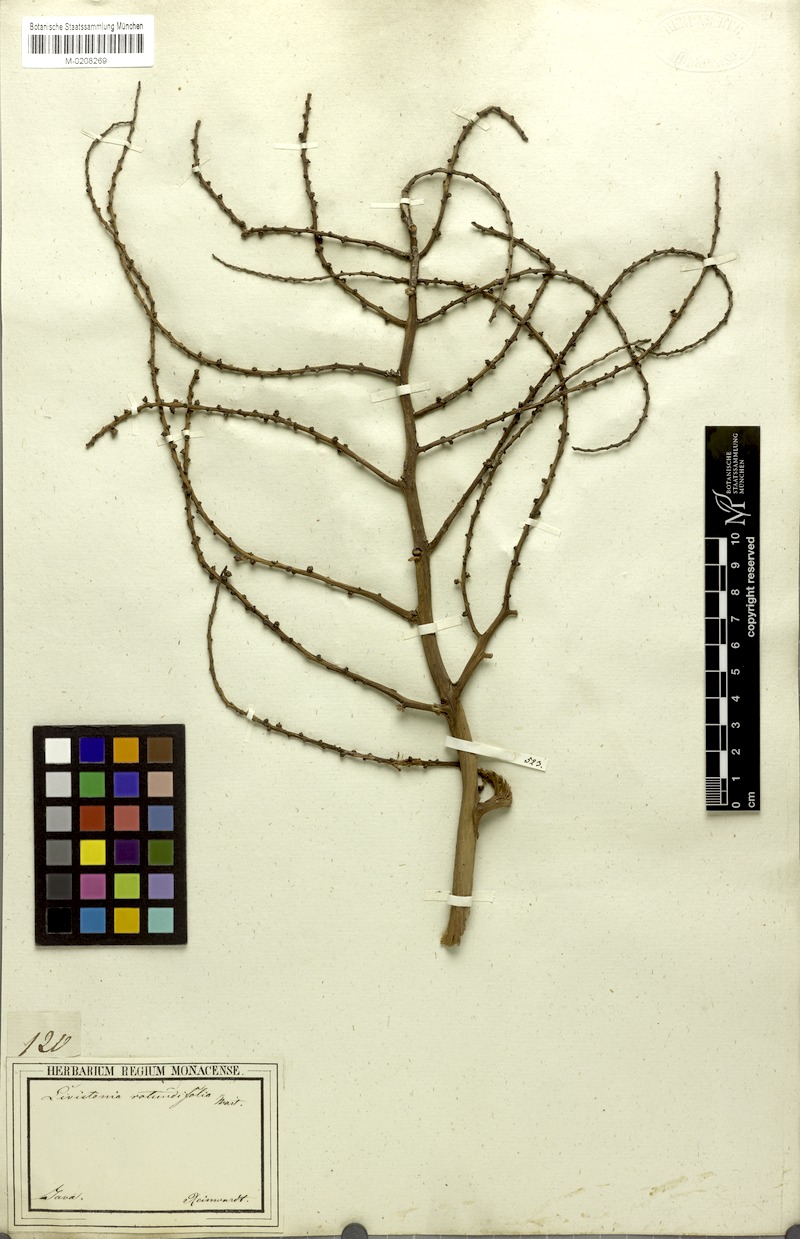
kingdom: Plantae
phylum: Tracheophyta
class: Liliopsida
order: Arecales
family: Arecaceae
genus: Saribus
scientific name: Saribus rotundifolius
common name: Palm
